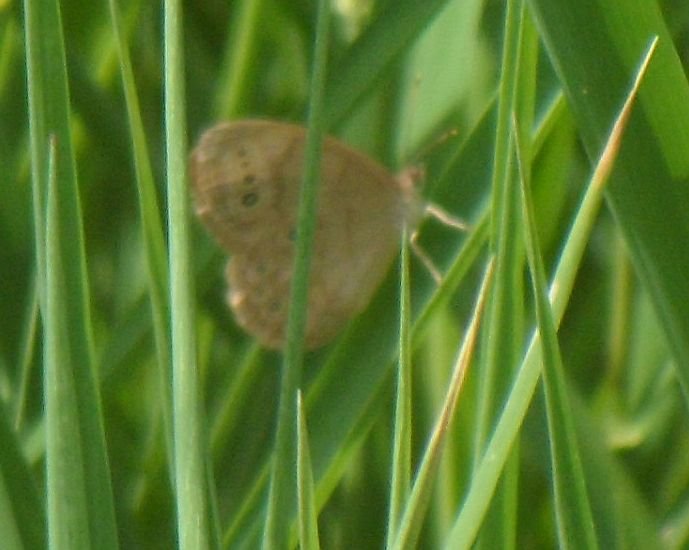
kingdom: Animalia
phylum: Arthropoda
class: Insecta
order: Lepidoptera
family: Nymphalidae
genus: Lethe
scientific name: Lethe eurydice
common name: Eyed Brown
